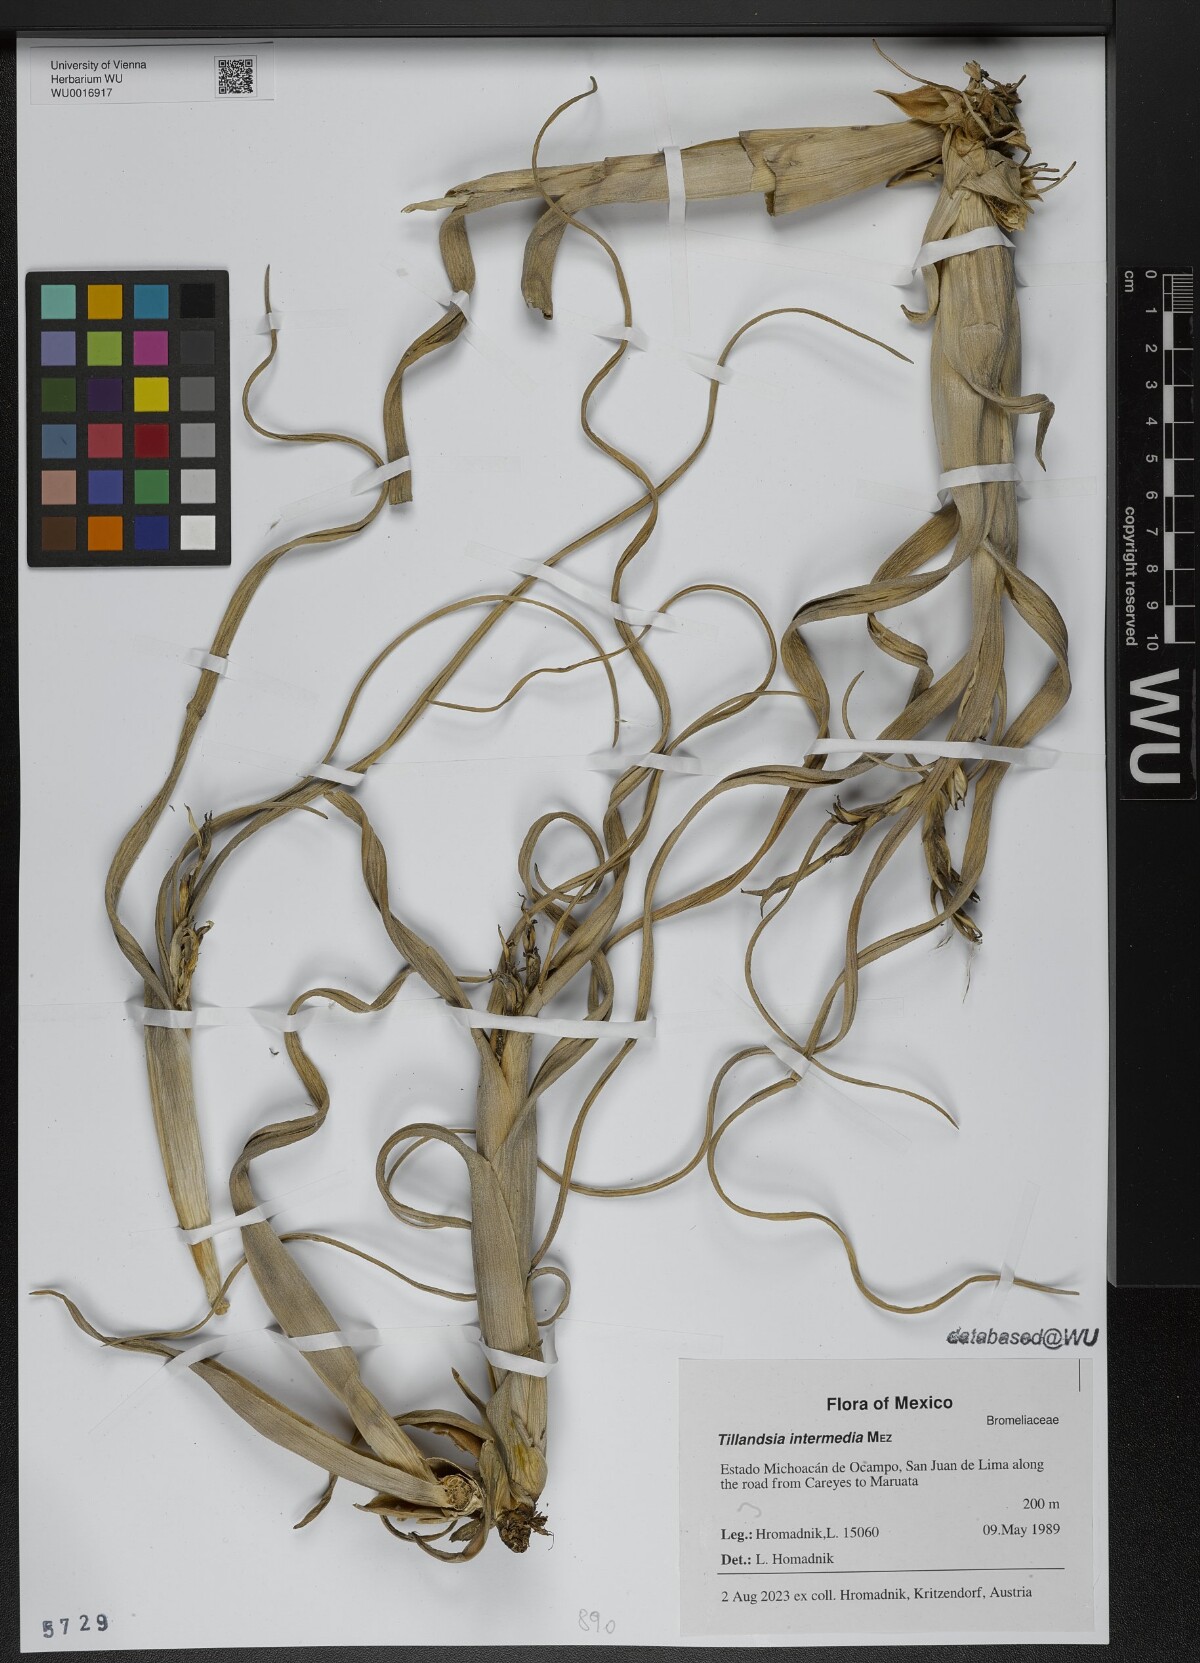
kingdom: Plantae
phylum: Tracheophyta
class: Liliopsida
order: Poales
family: Bromeliaceae
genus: Tillandsia
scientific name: Tillandsia intermedia
